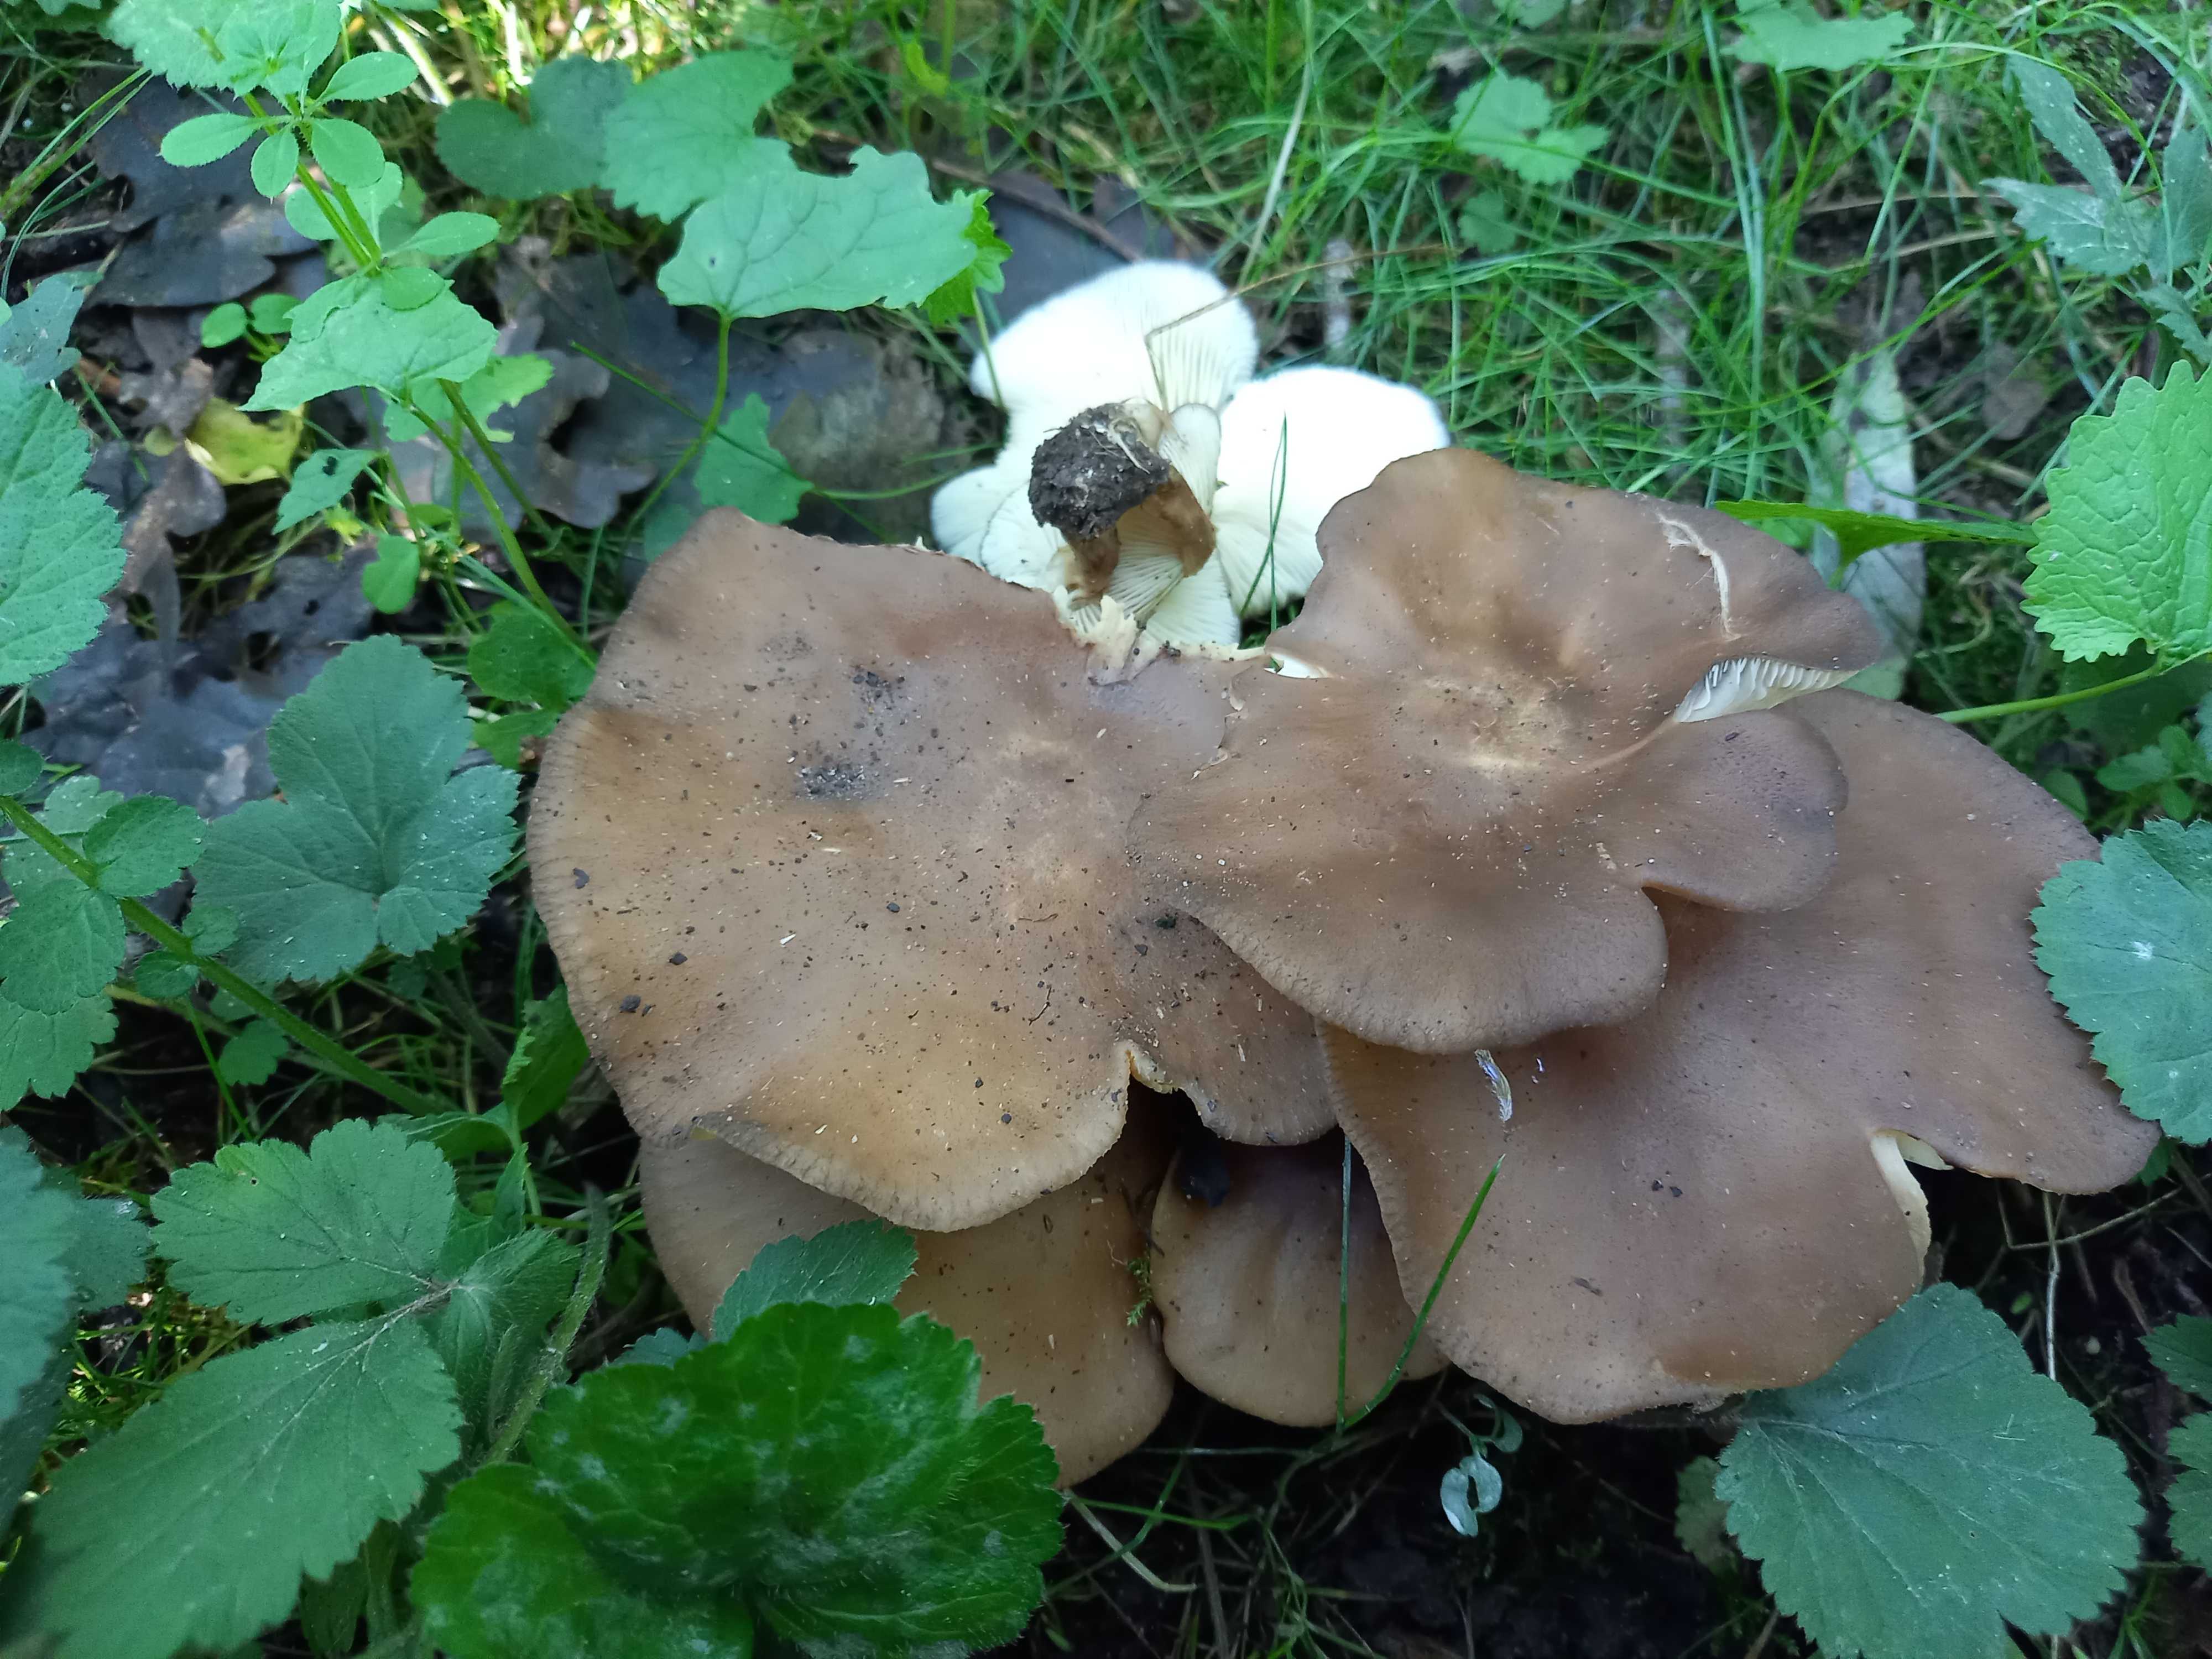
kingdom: Fungi
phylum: Basidiomycota
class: Agaricomycetes
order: Agaricales
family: Lyophyllaceae
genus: Lyophyllum
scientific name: Lyophyllum decastes
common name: røggrå gråblad
